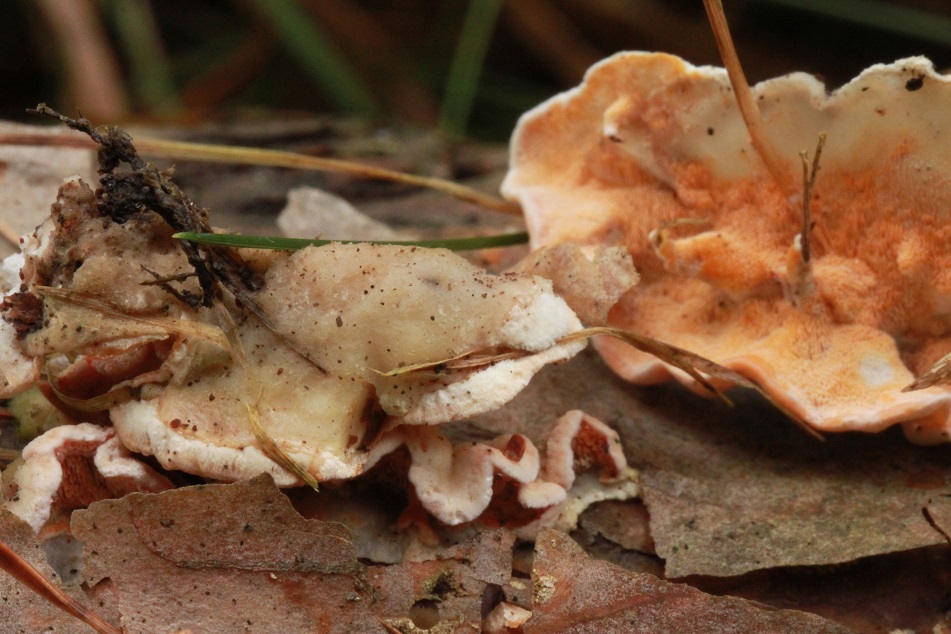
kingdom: Fungi
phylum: Basidiomycota
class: Agaricomycetes
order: Polyporales
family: Incrustoporiaceae
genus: Skeletocutis
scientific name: Skeletocutis amorpha
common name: orange krystalporesvamp
